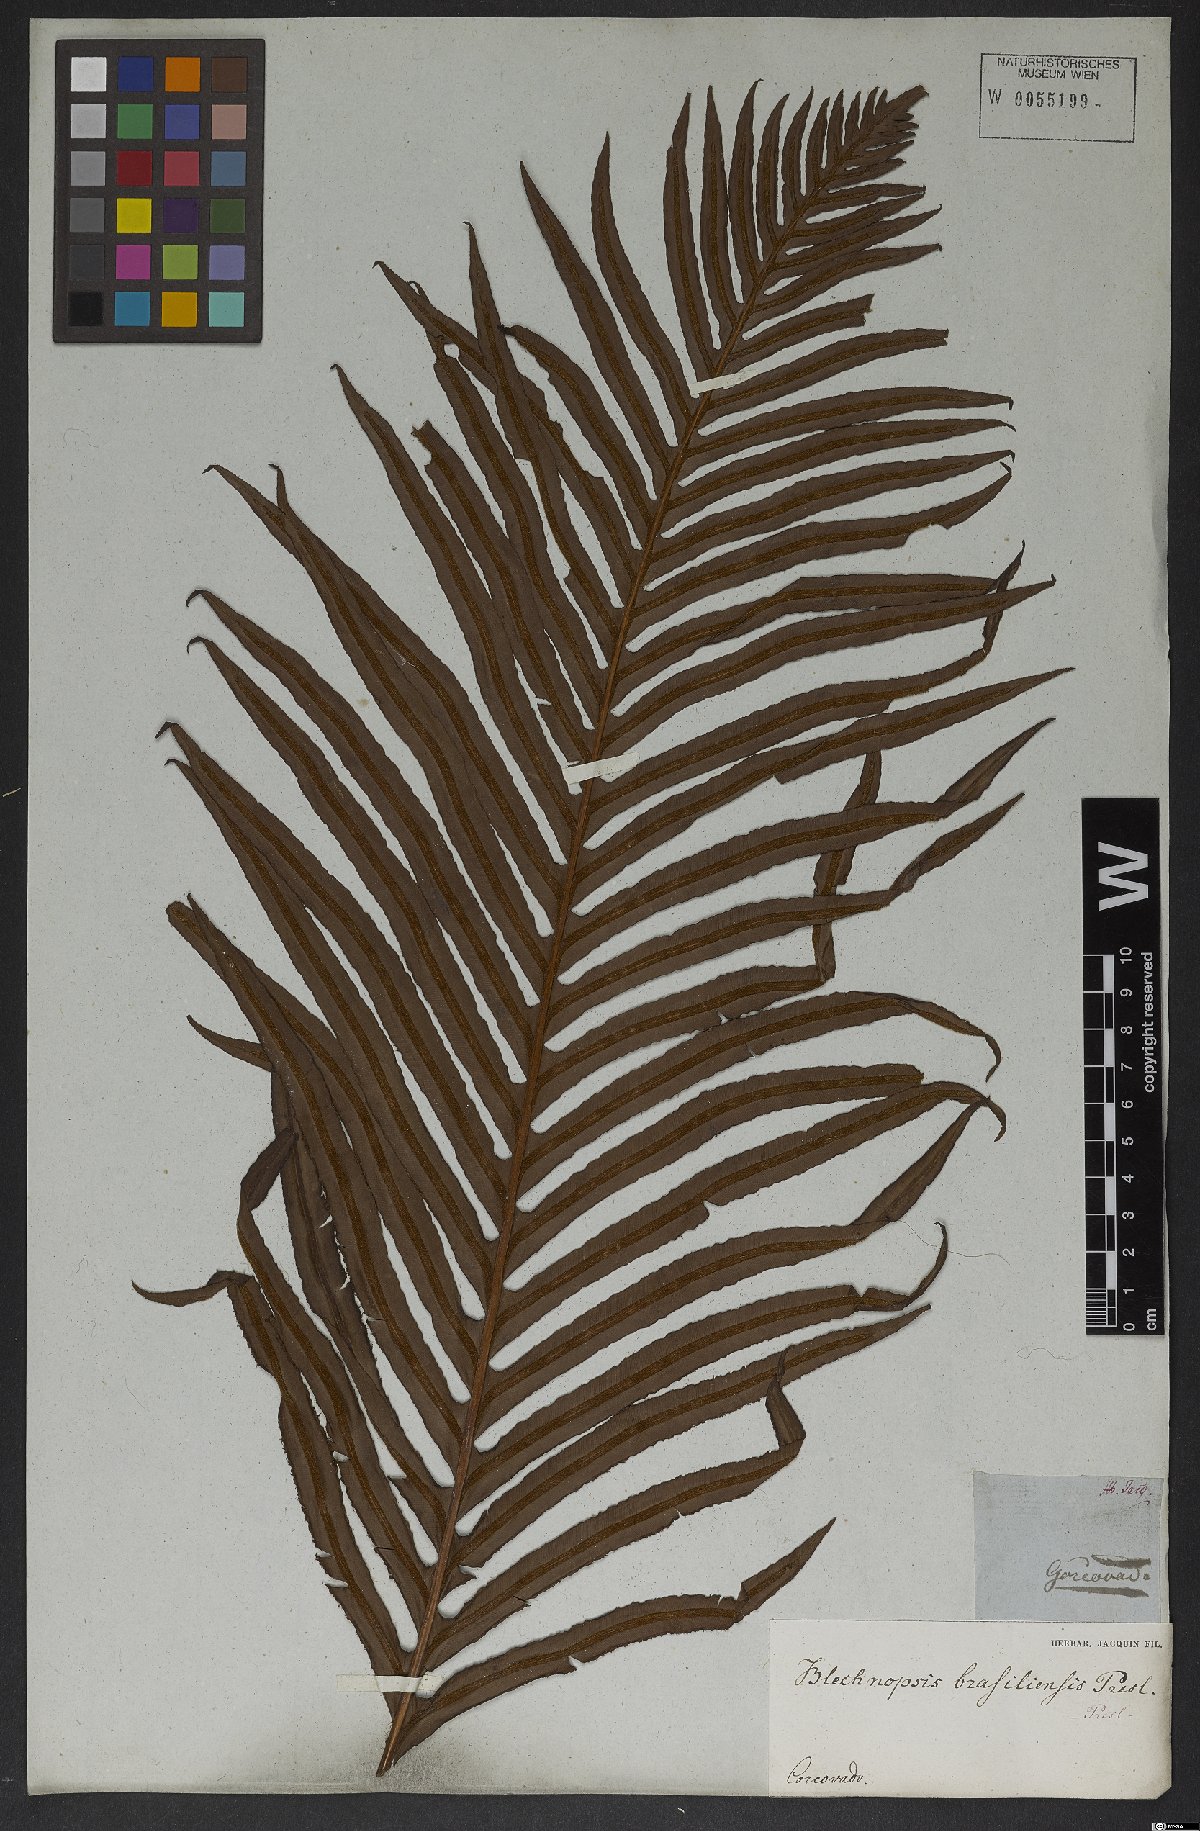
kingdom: Plantae
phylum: Tracheophyta
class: Polypodiopsida
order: Polypodiales
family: Blechnaceae
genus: Neoblechnum
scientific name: Neoblechnum brasiliense
